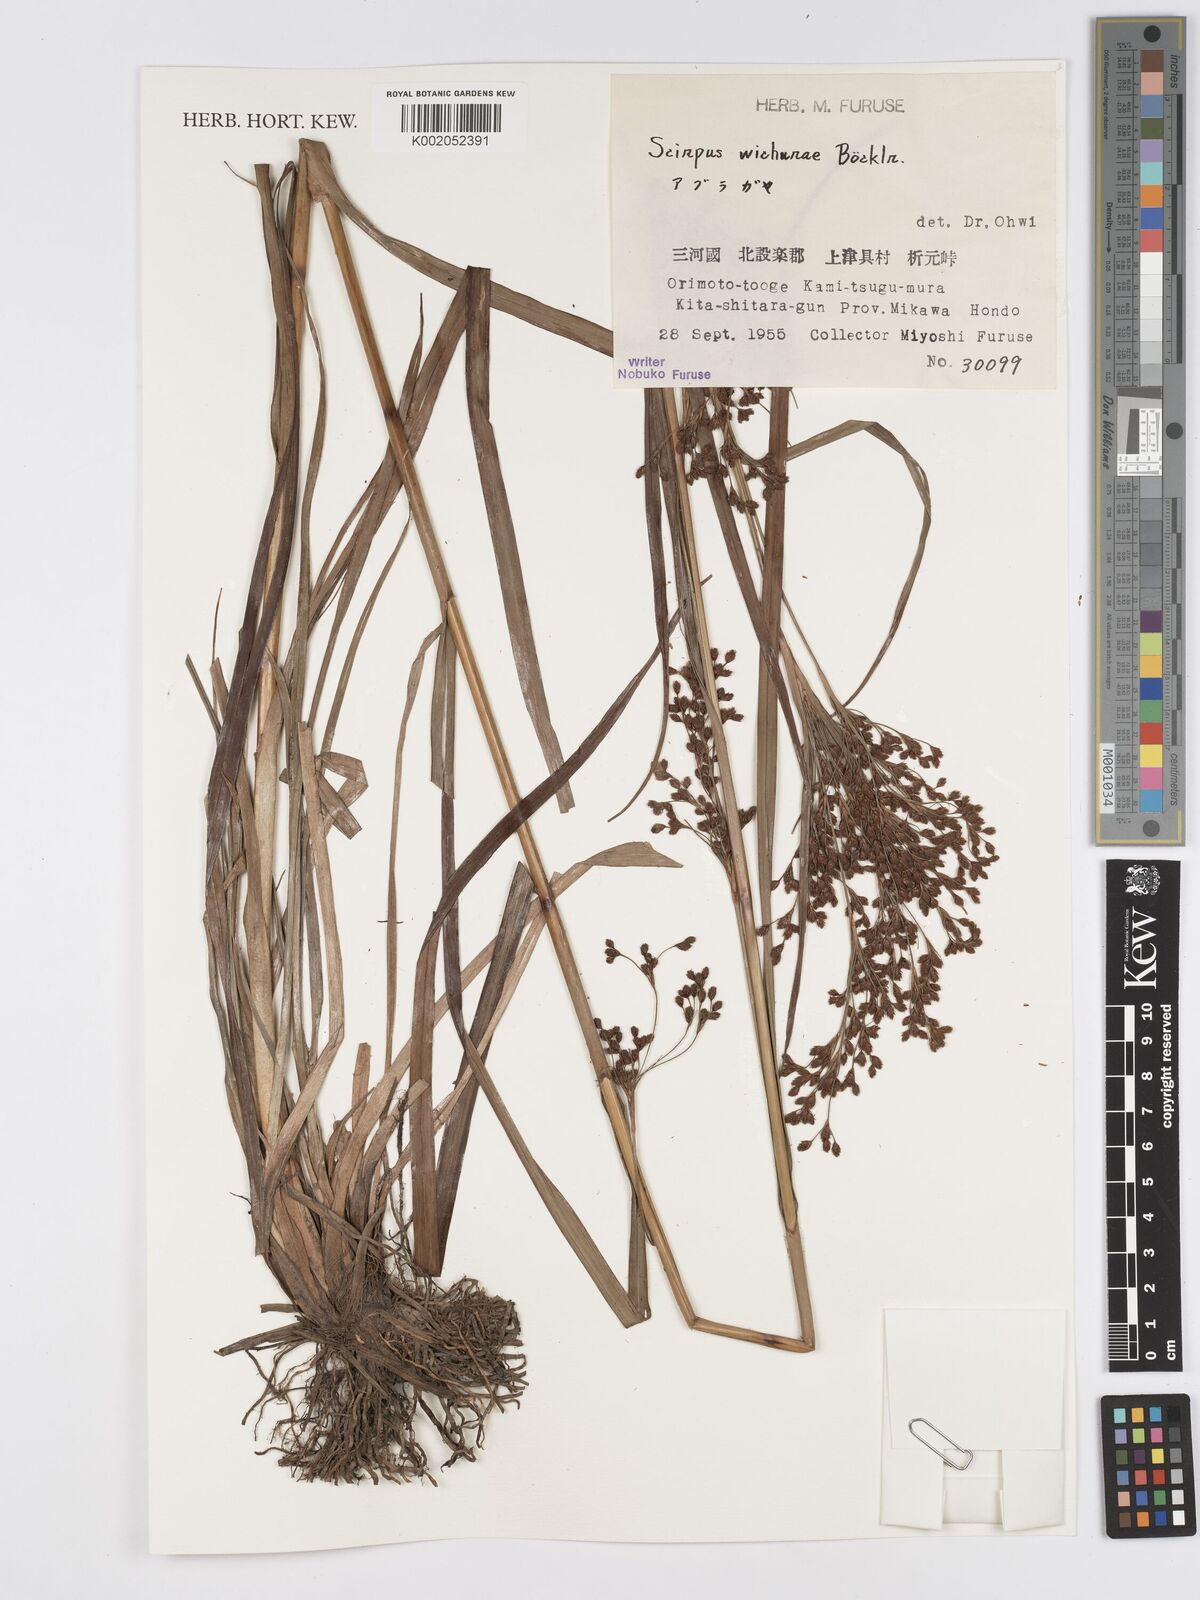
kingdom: Plantae
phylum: Tracheophyta
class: Liliopsida
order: Poales
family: Cyperaceae
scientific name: Cyperaceae
